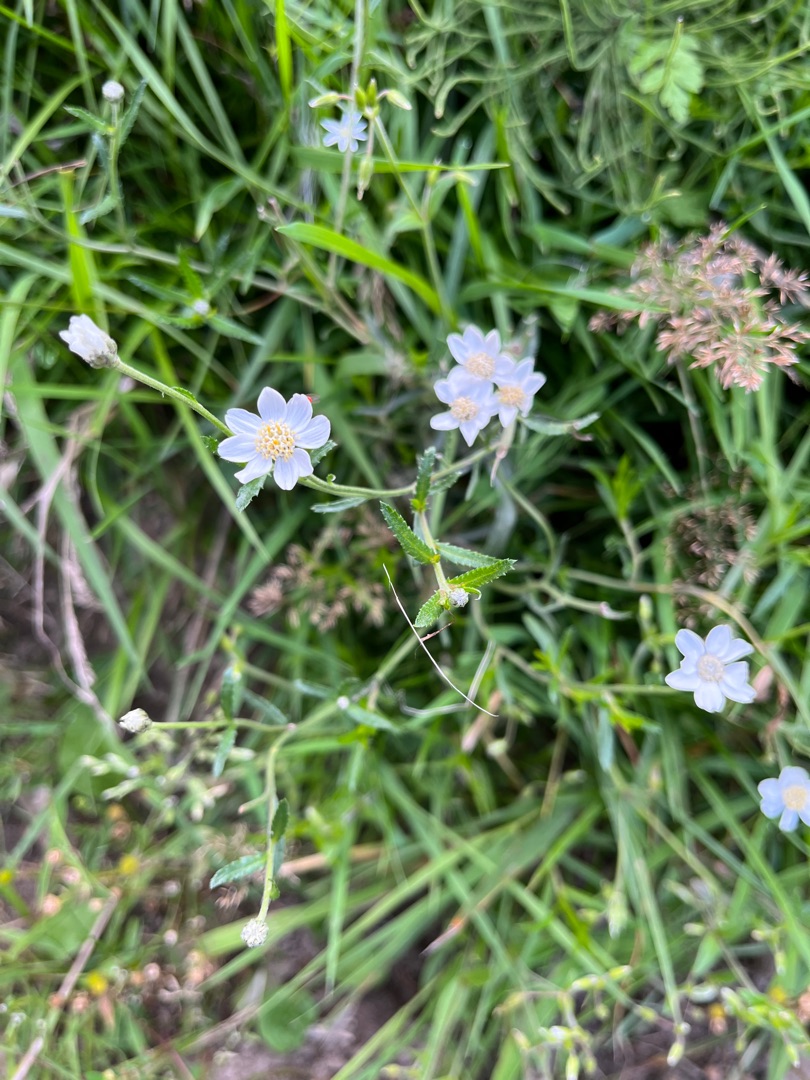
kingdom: Plantae
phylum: Tracheophyta
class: Magnoliopsida
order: Asterales
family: Asteraceae
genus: Achillea
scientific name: Achillea ptarmica
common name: Nyse-røllike
